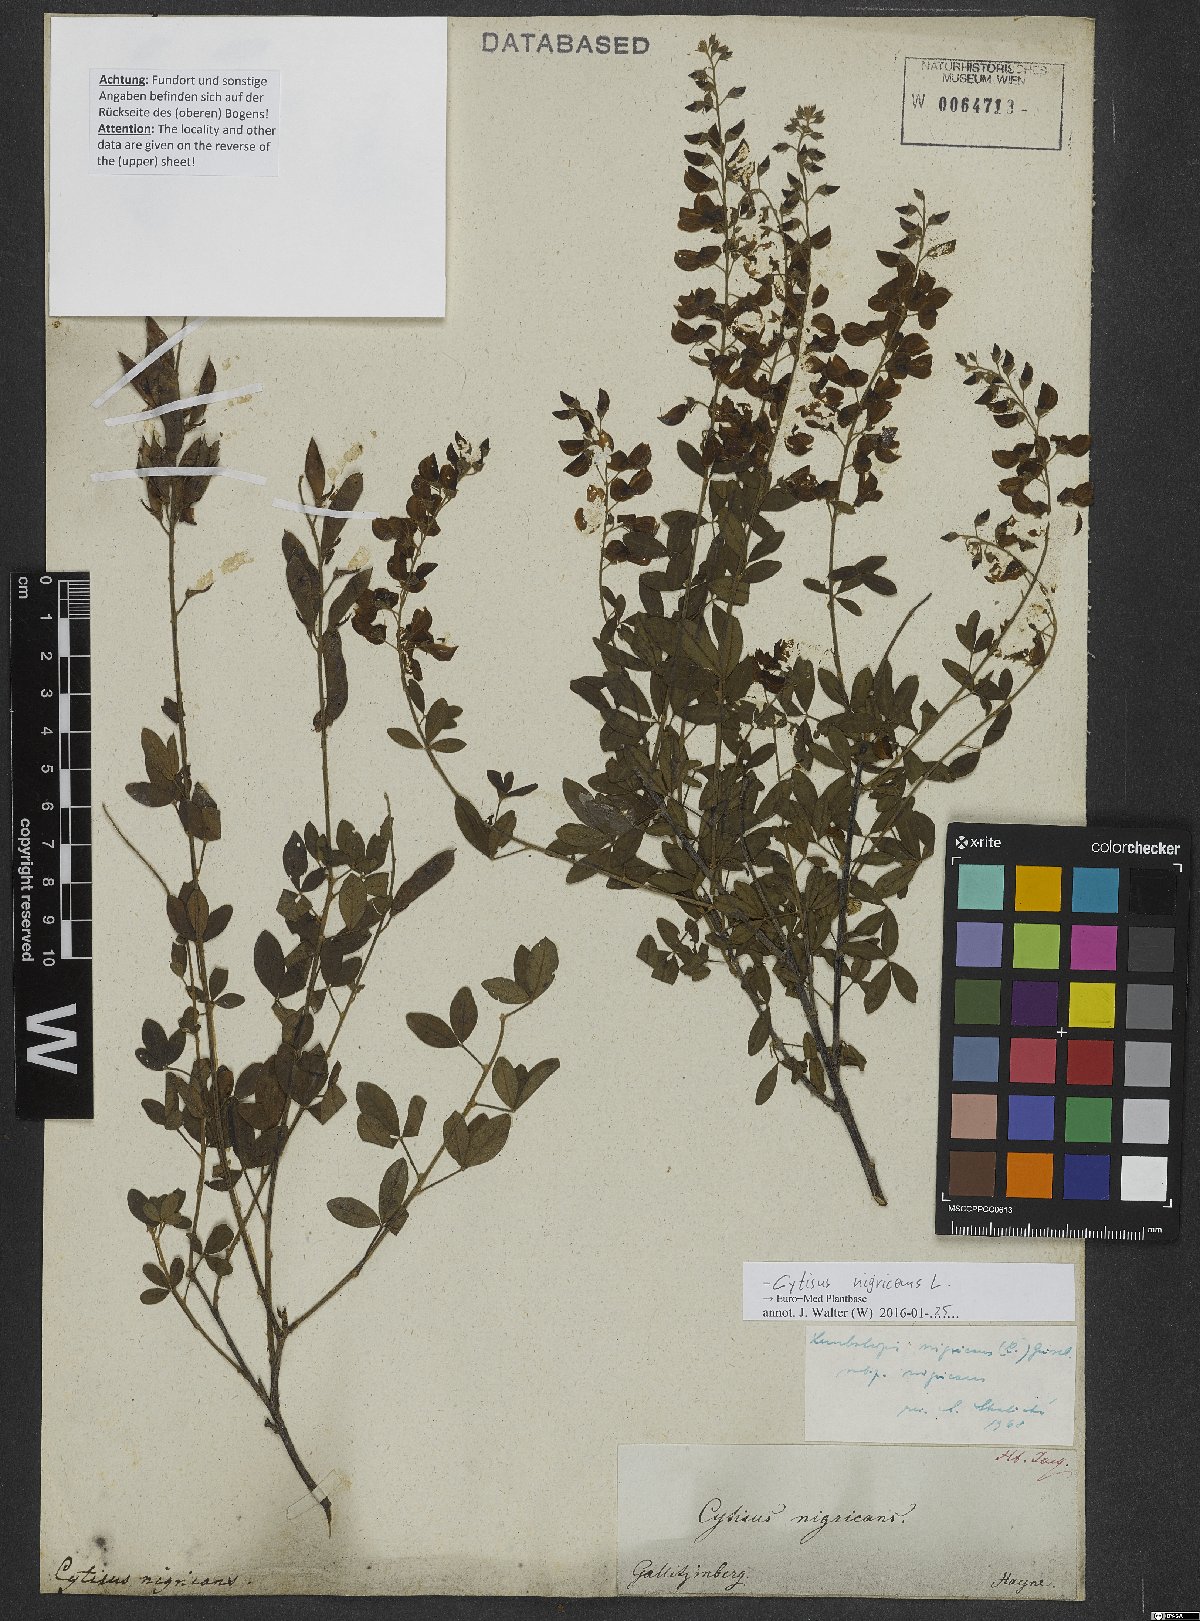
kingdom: Plantae
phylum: Tracheophyta
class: Magnoliopsida
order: Fabales
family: Fabaceae
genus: Cytisus
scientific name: Cytisus nigricans
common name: Black broom
